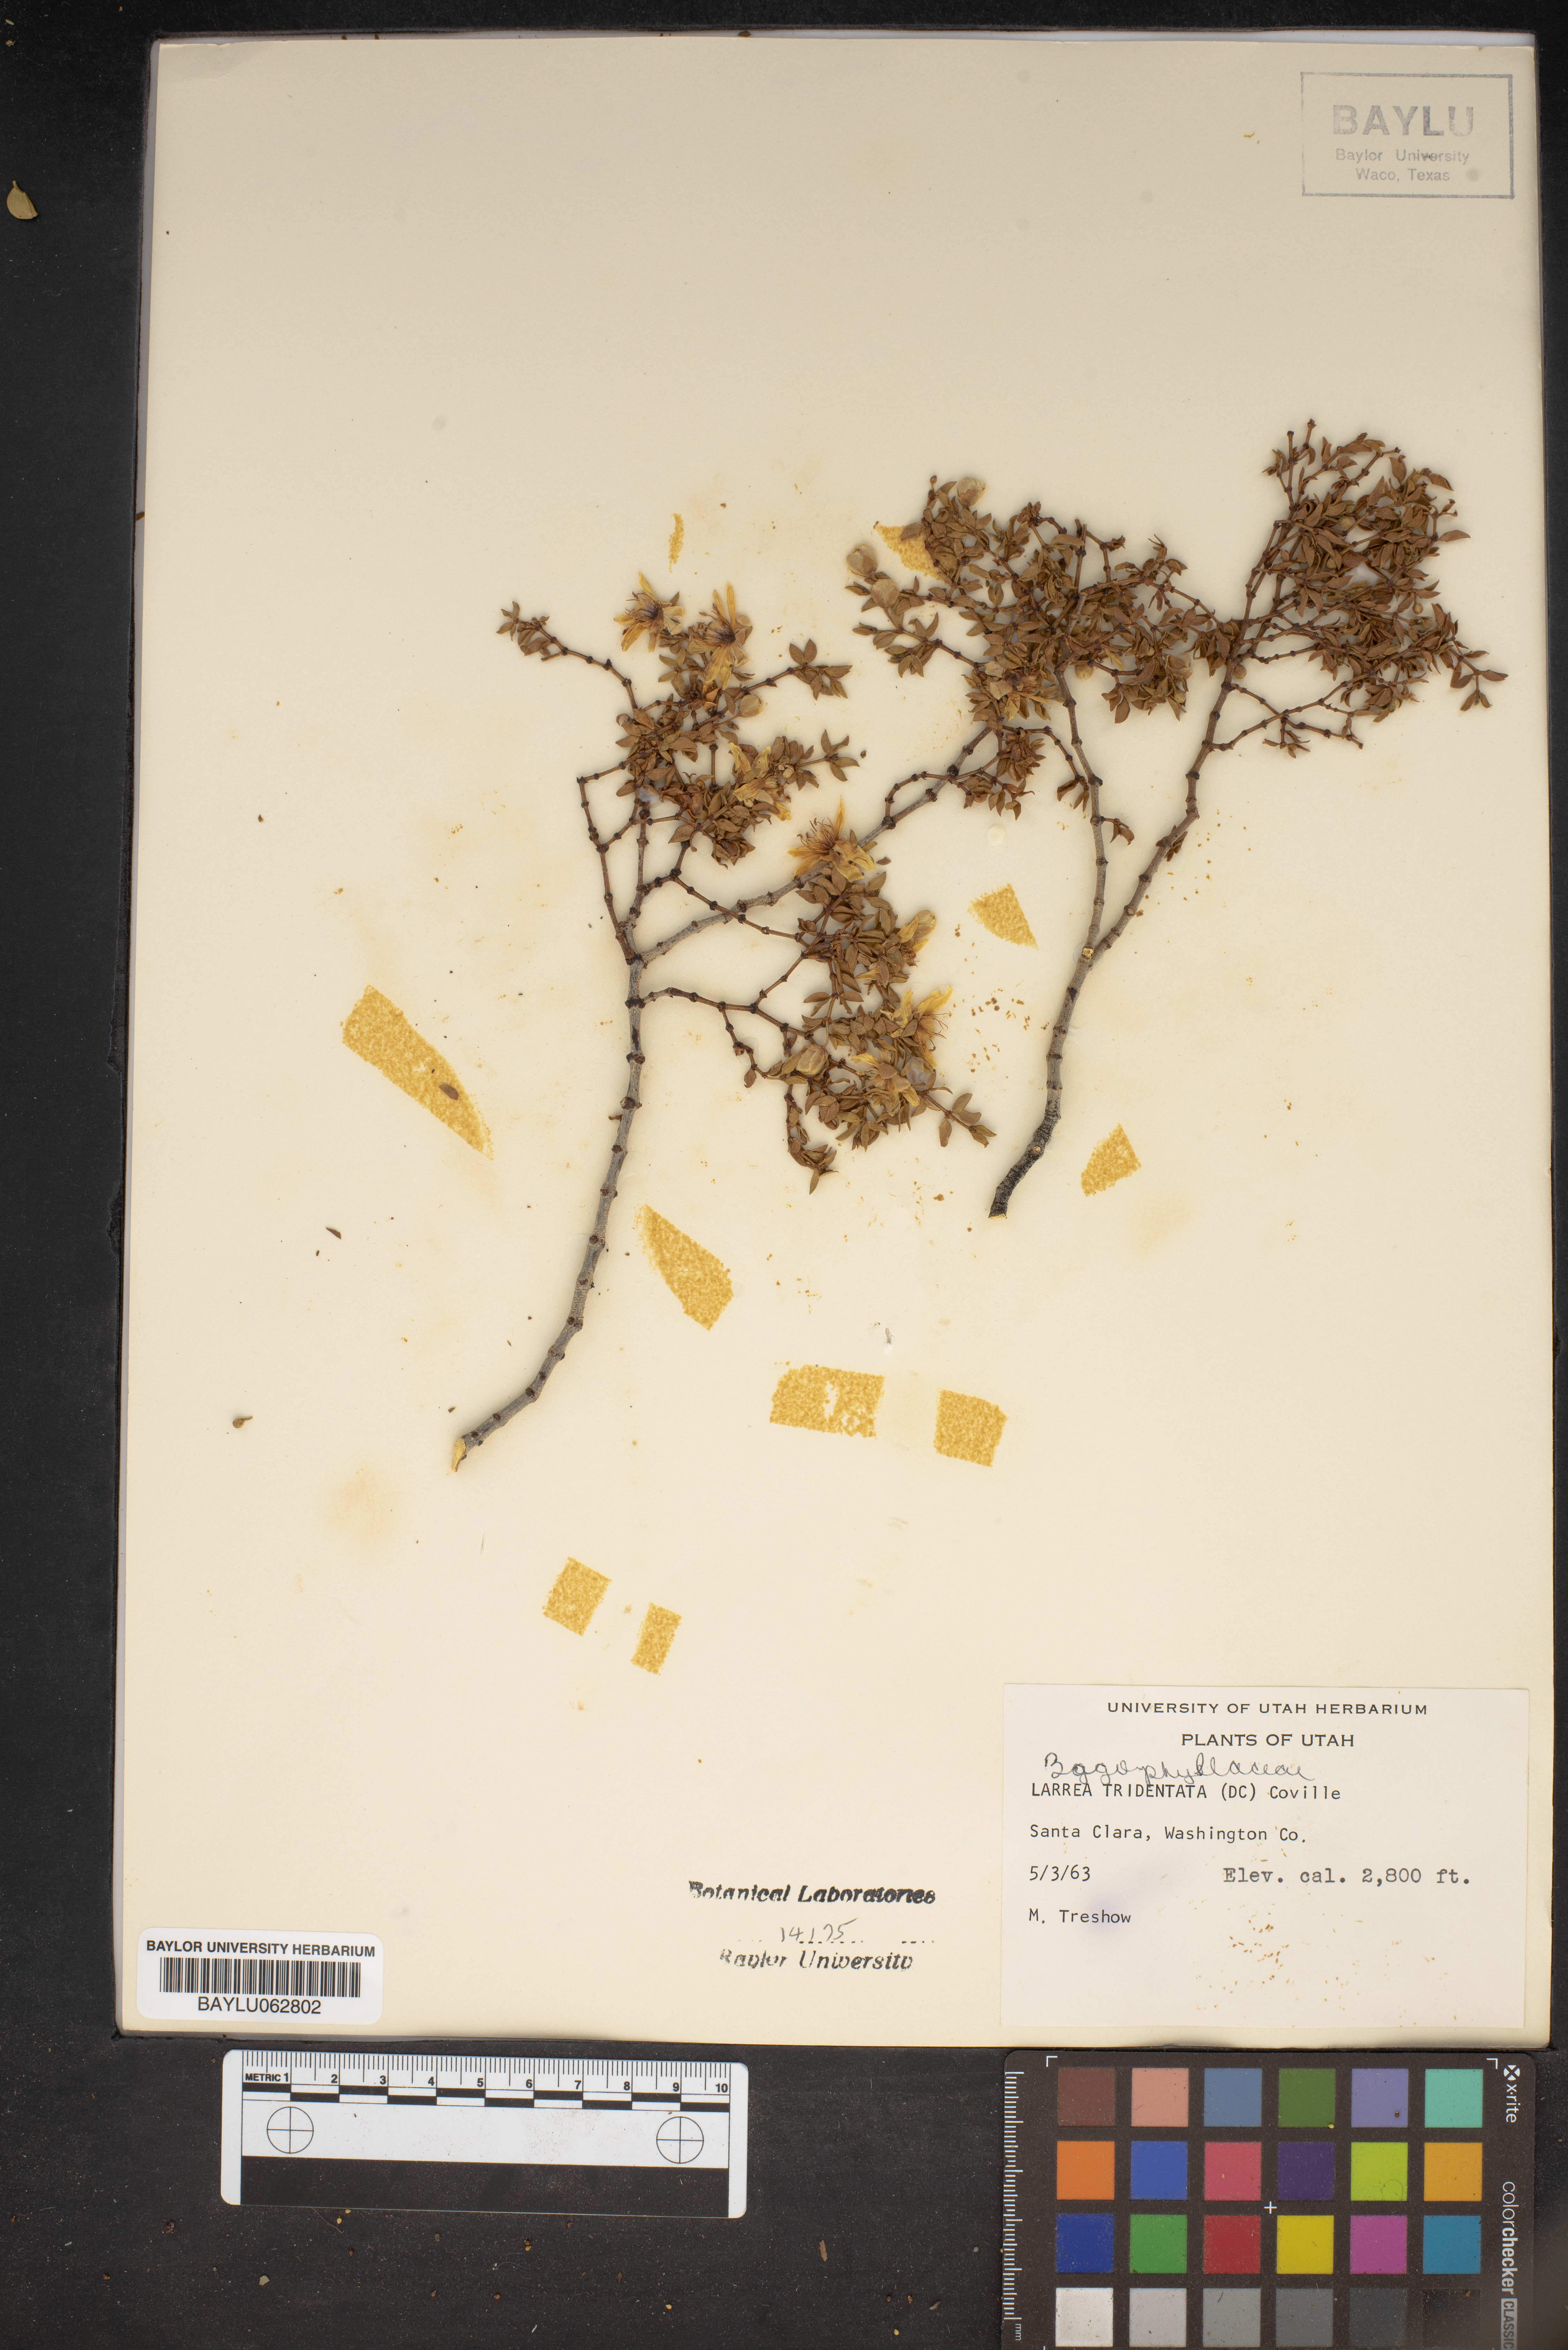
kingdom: Plantae
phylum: Tracheophyta
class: Magnoliopsida
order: Zygophyllales
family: Zygophyllaceae
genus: Larrea
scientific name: Larrea tridentata
